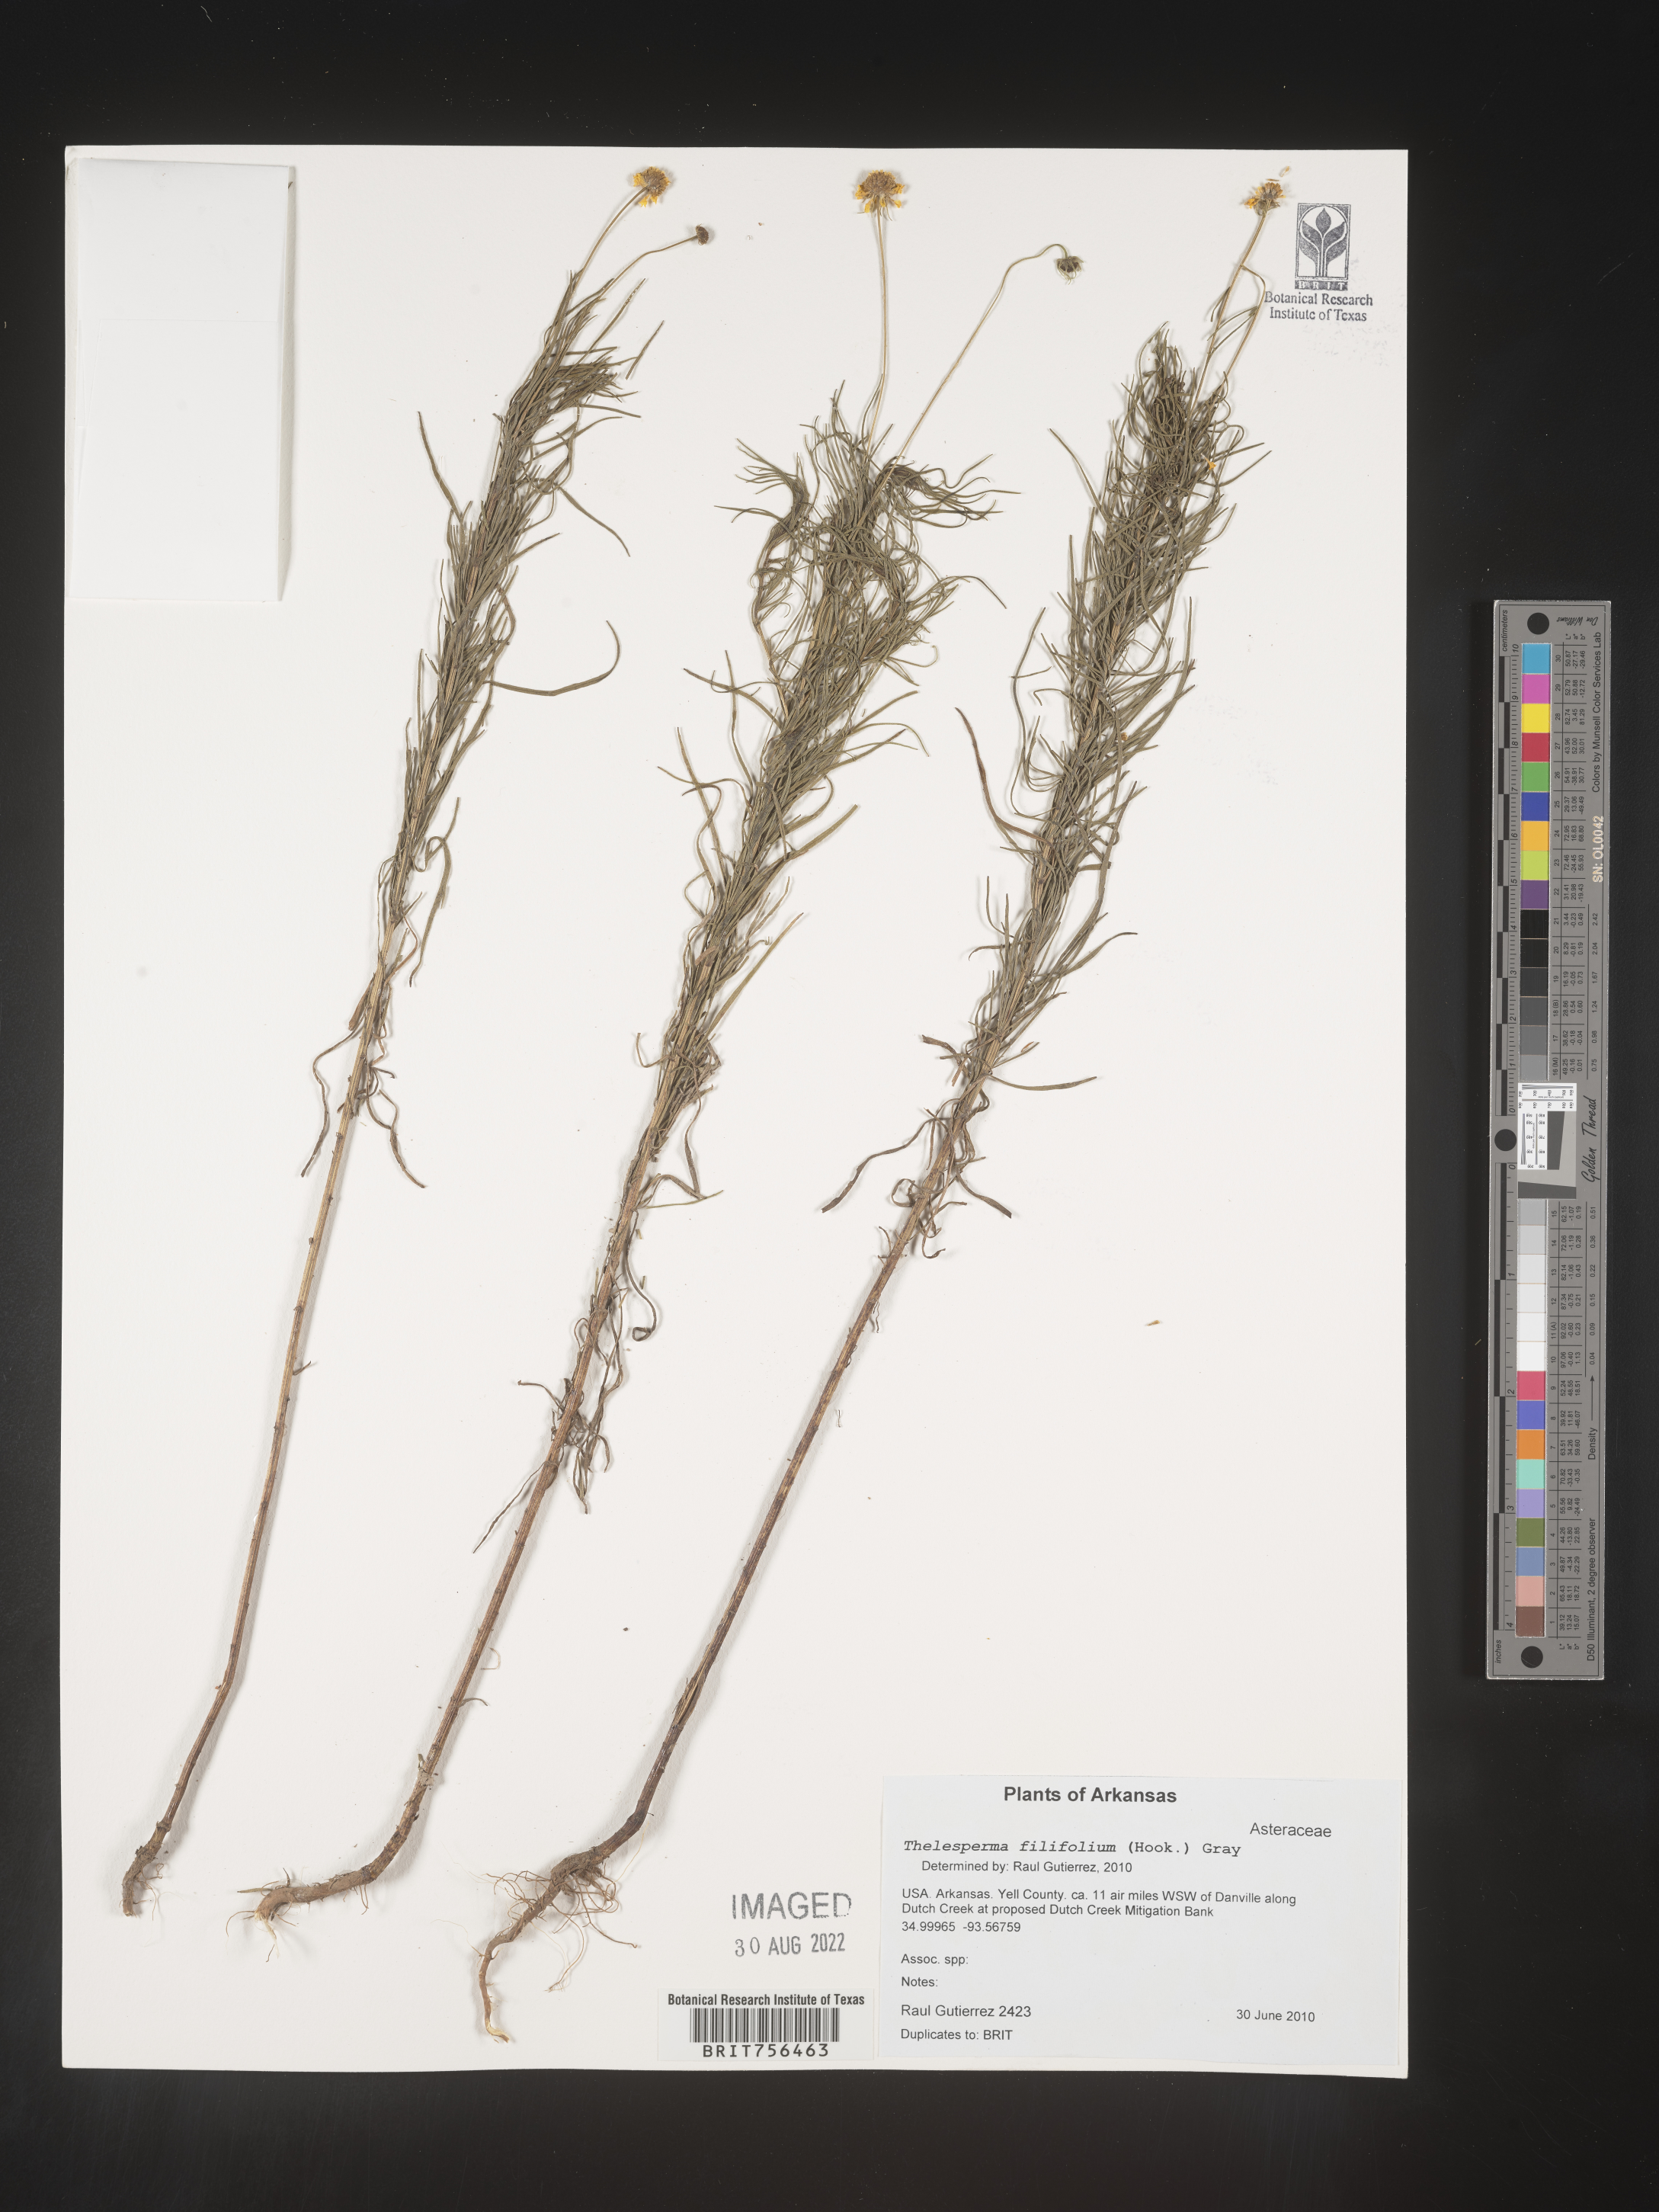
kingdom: Plantae
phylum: Tracheophyta
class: Magnoliopsida
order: Asterales
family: Asteraceae
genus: Thelesperma
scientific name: Thelesperma filifolium
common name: Stiff greenthread
